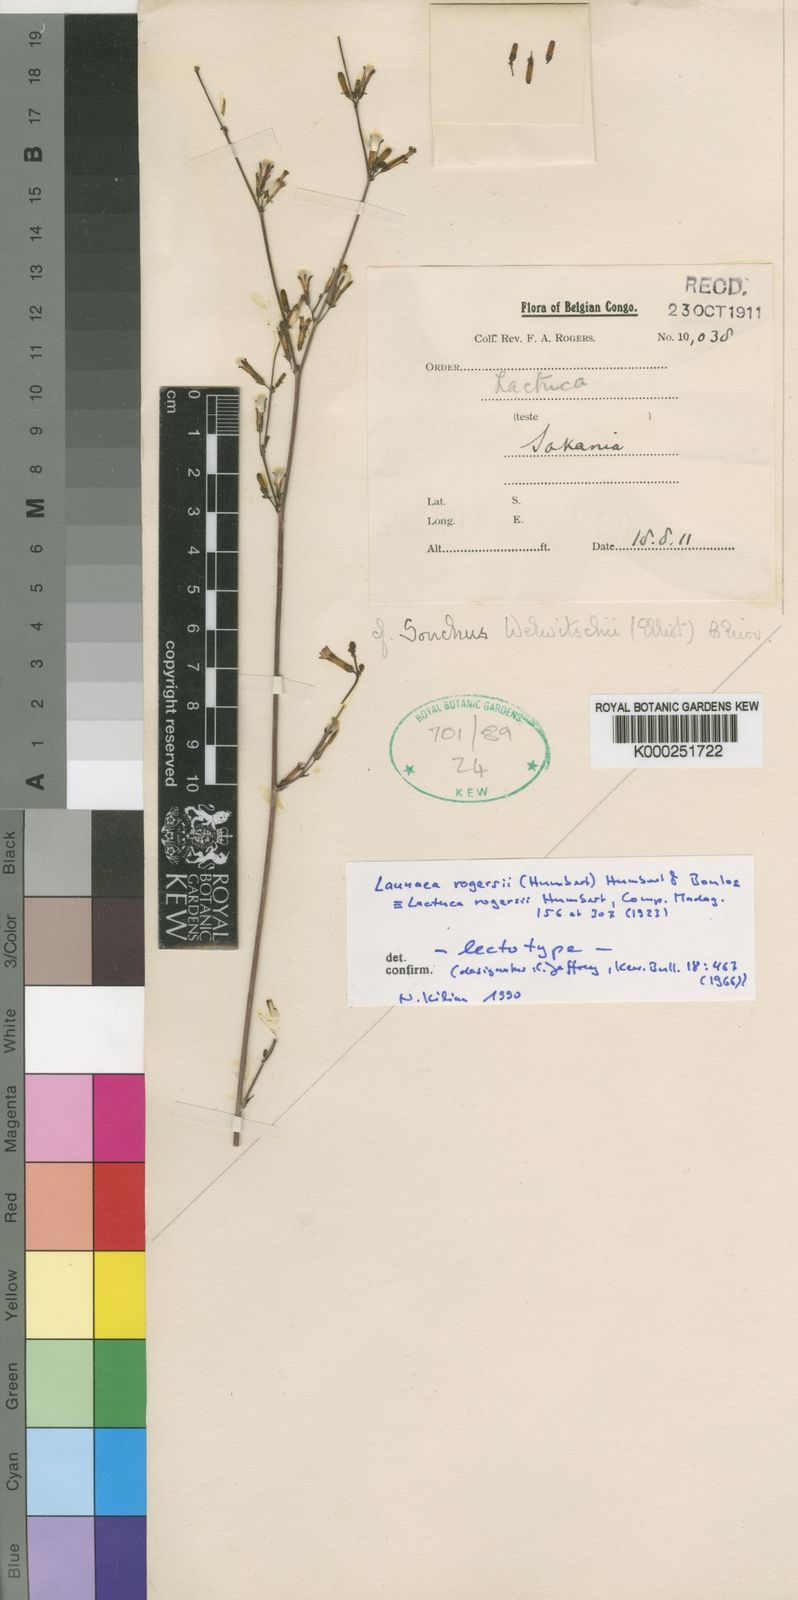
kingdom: Plantae
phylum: Tracheophyta
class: Magnoliopsida
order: Asterales
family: Asteraceae
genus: Launaea
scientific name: Launaea rogersii
